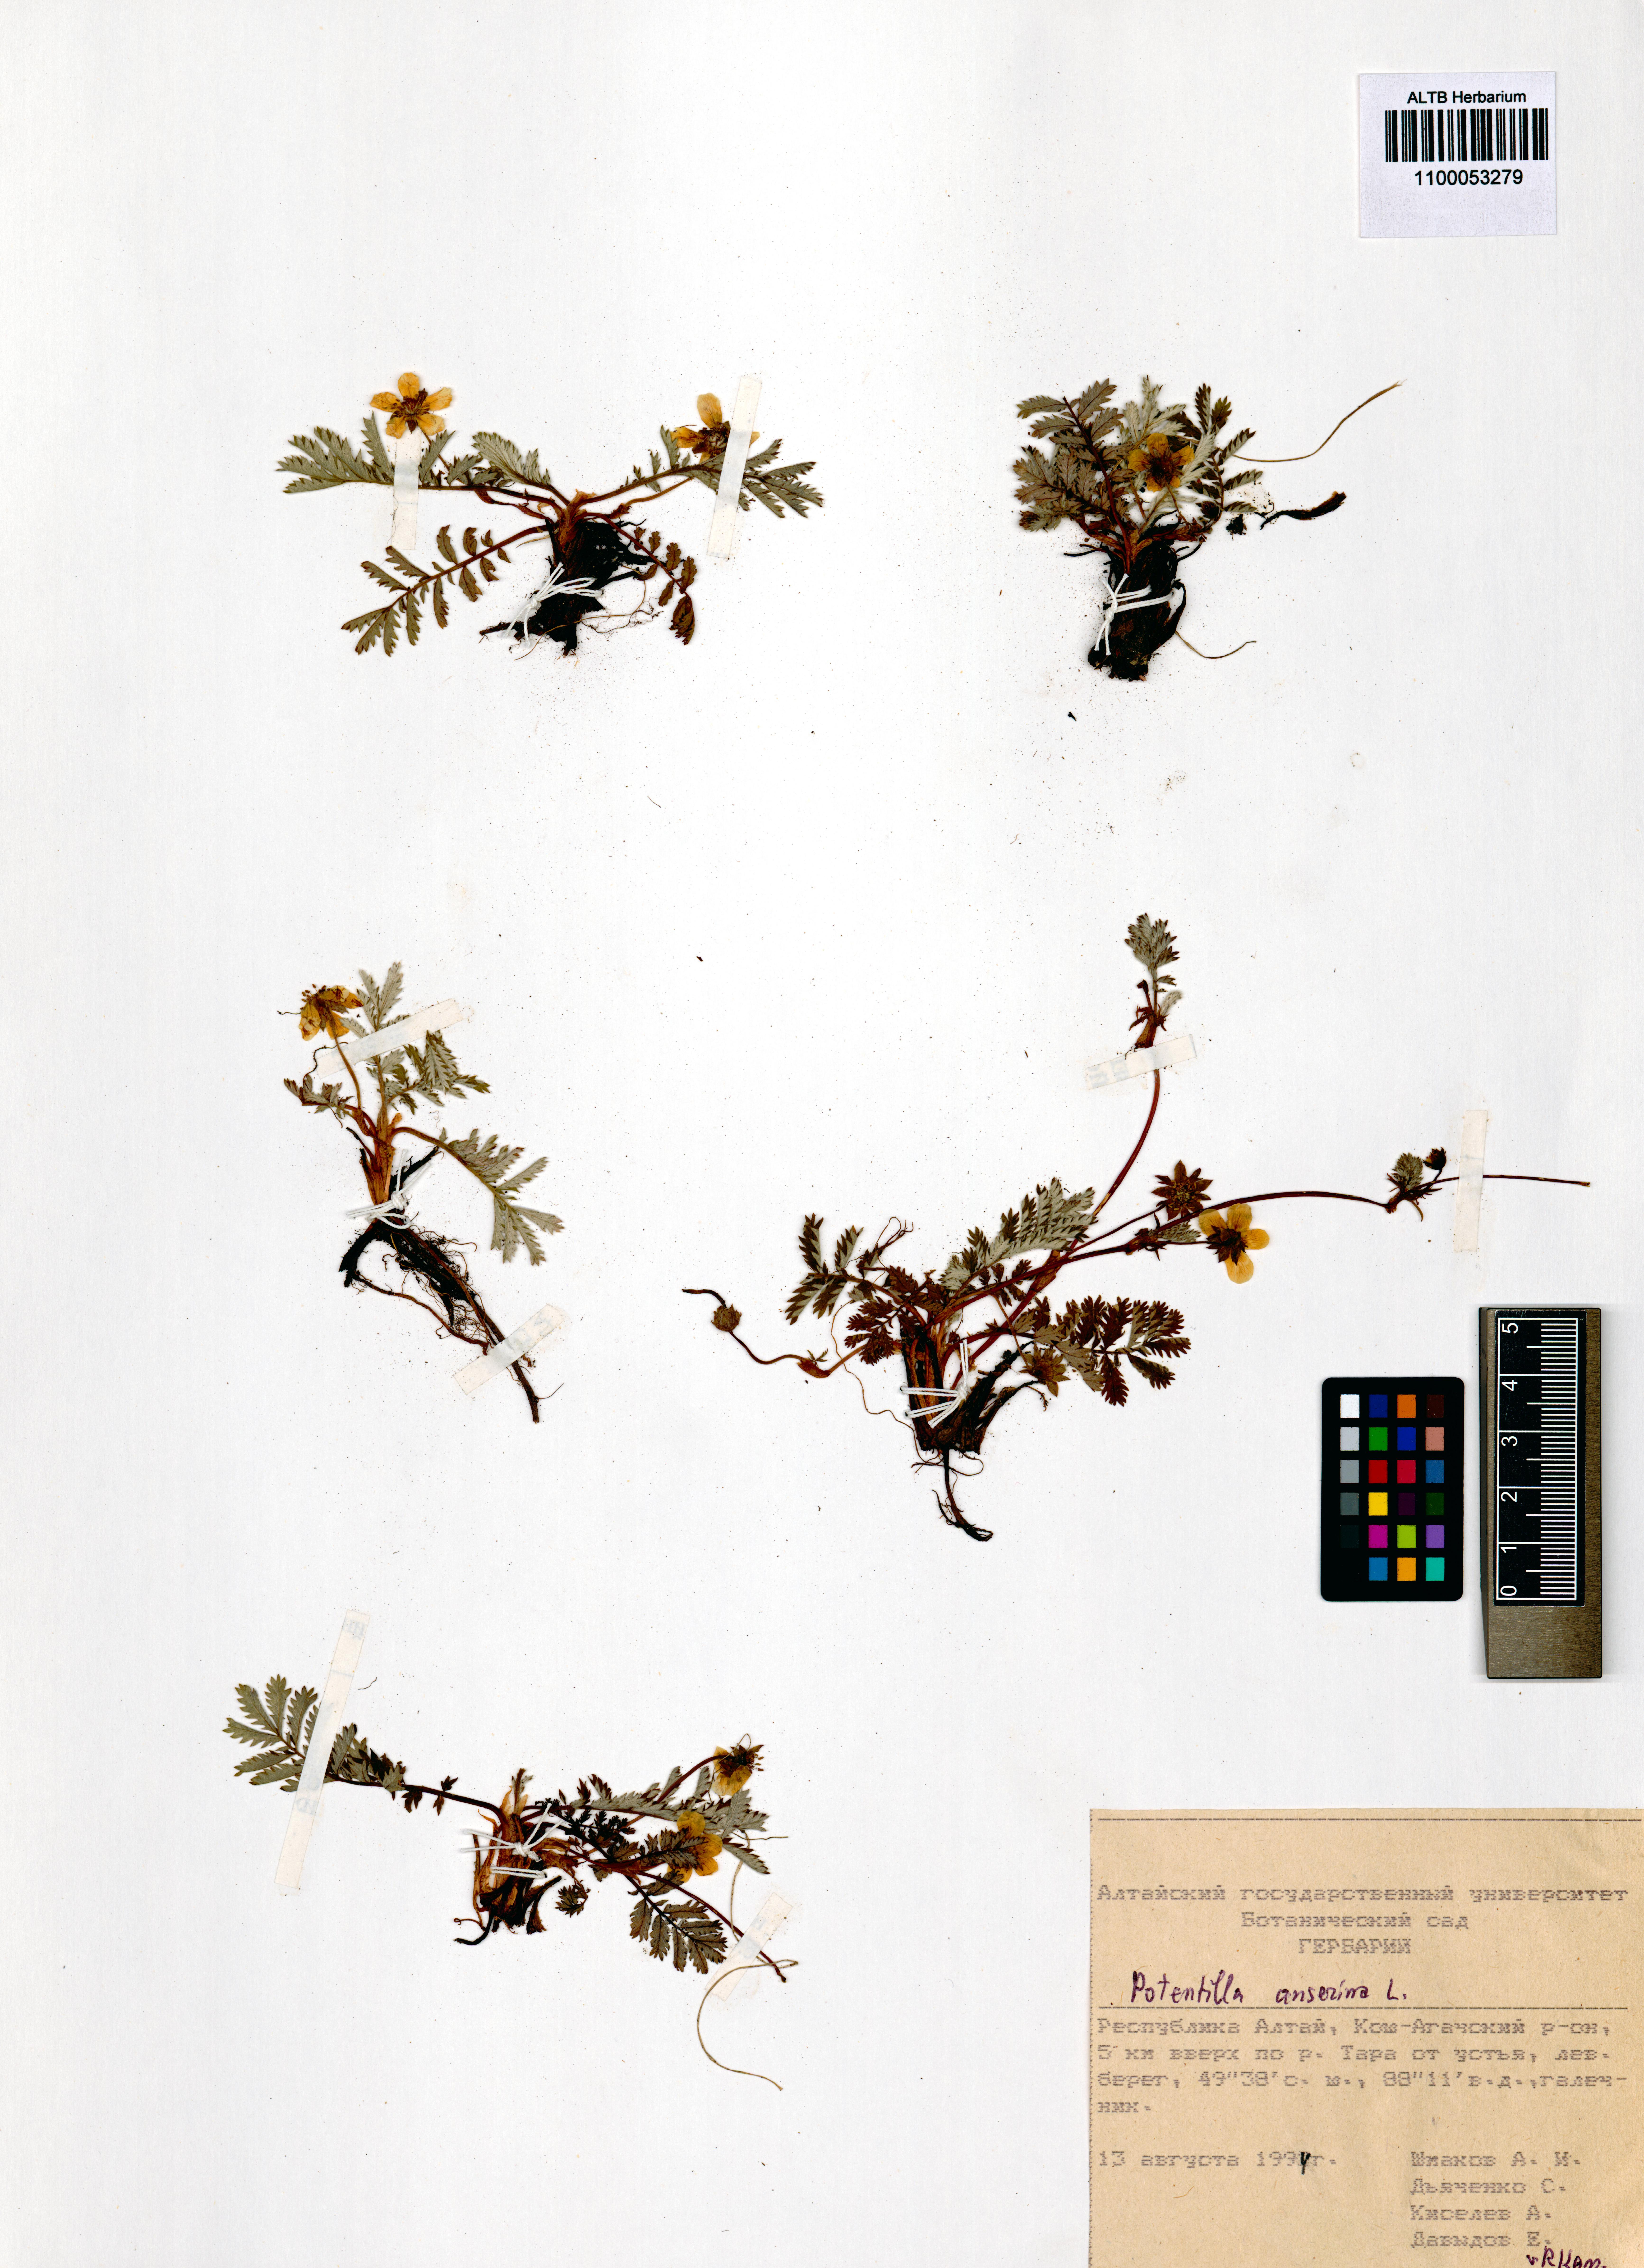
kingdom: Plantae
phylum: Tracheophyta
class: Magnoliopsida
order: Rosales
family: Rosaceae
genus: Argentina
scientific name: Argentina anserina
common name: Common silverweed
